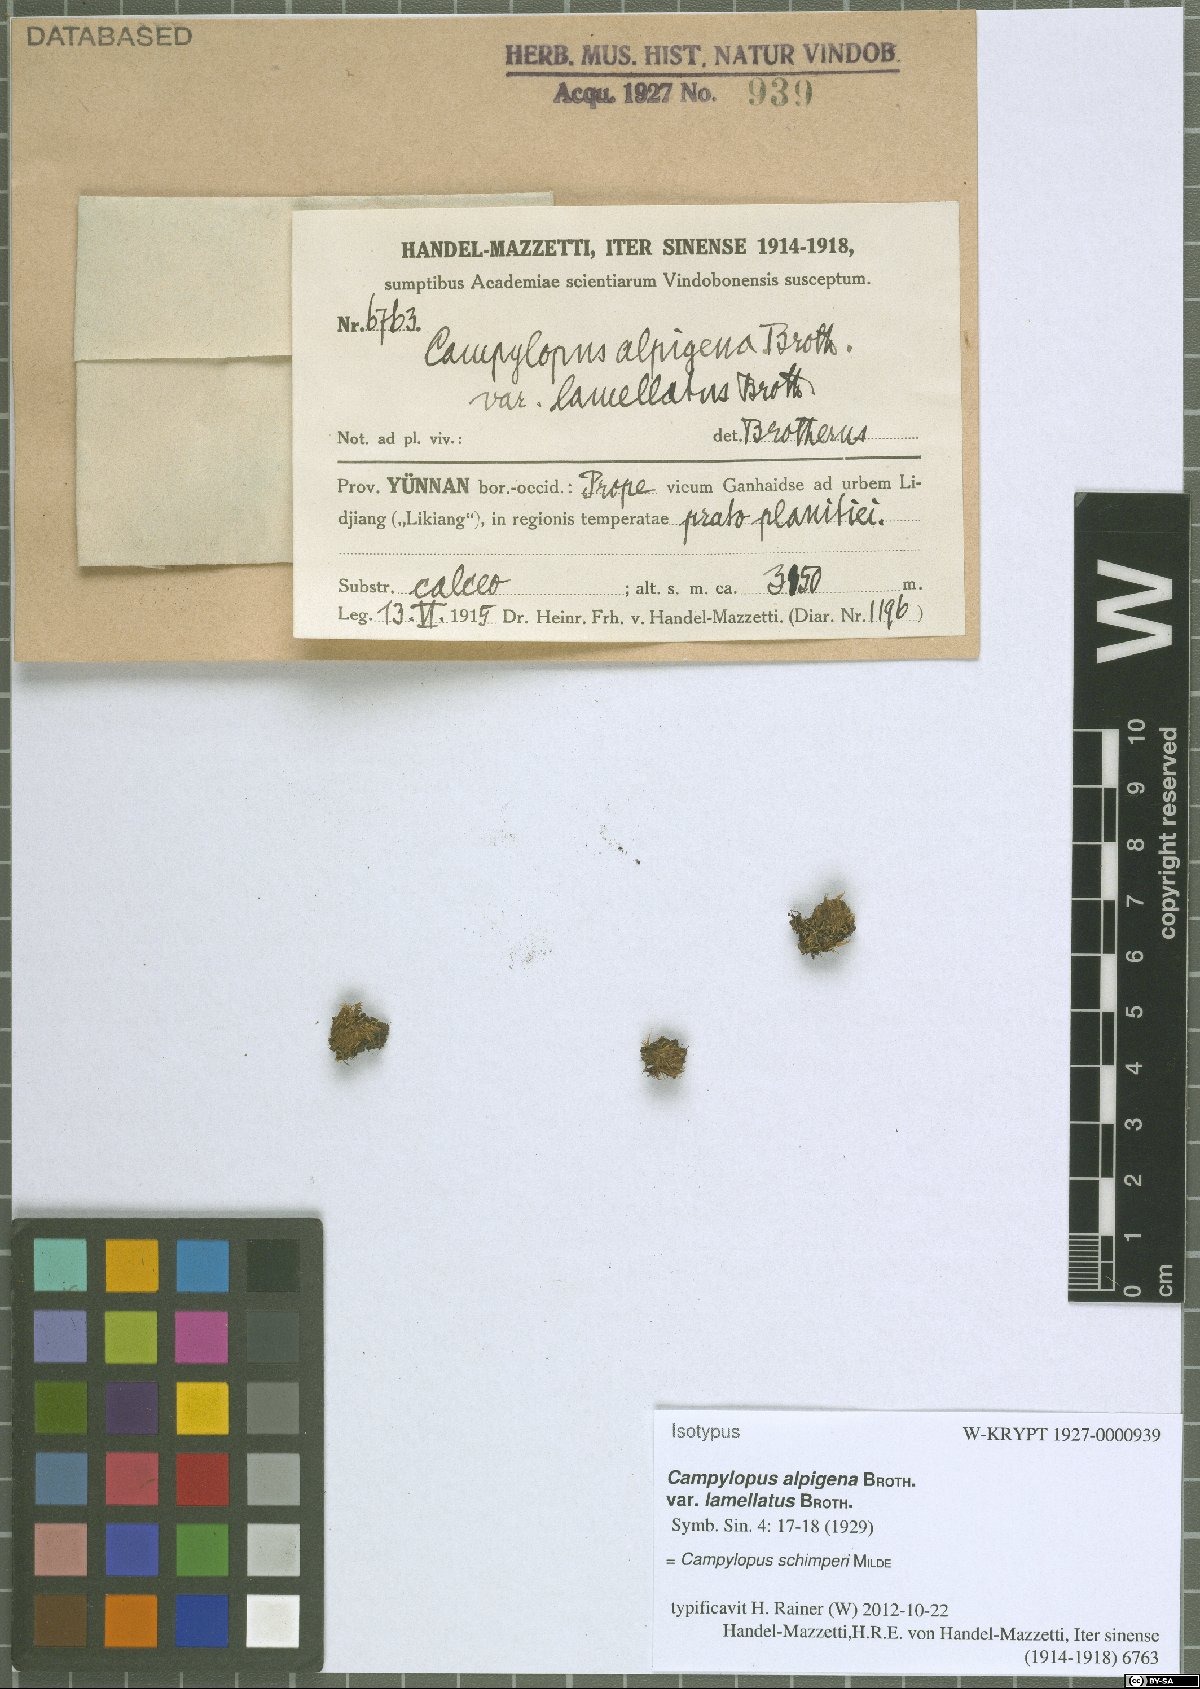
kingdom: Plantae
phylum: Bryophyta
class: Bryopsida
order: Dicranales
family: Leucobryaceae
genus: Campylopus
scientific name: Campylopus schimperi
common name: Schimper's swan-neck moss
